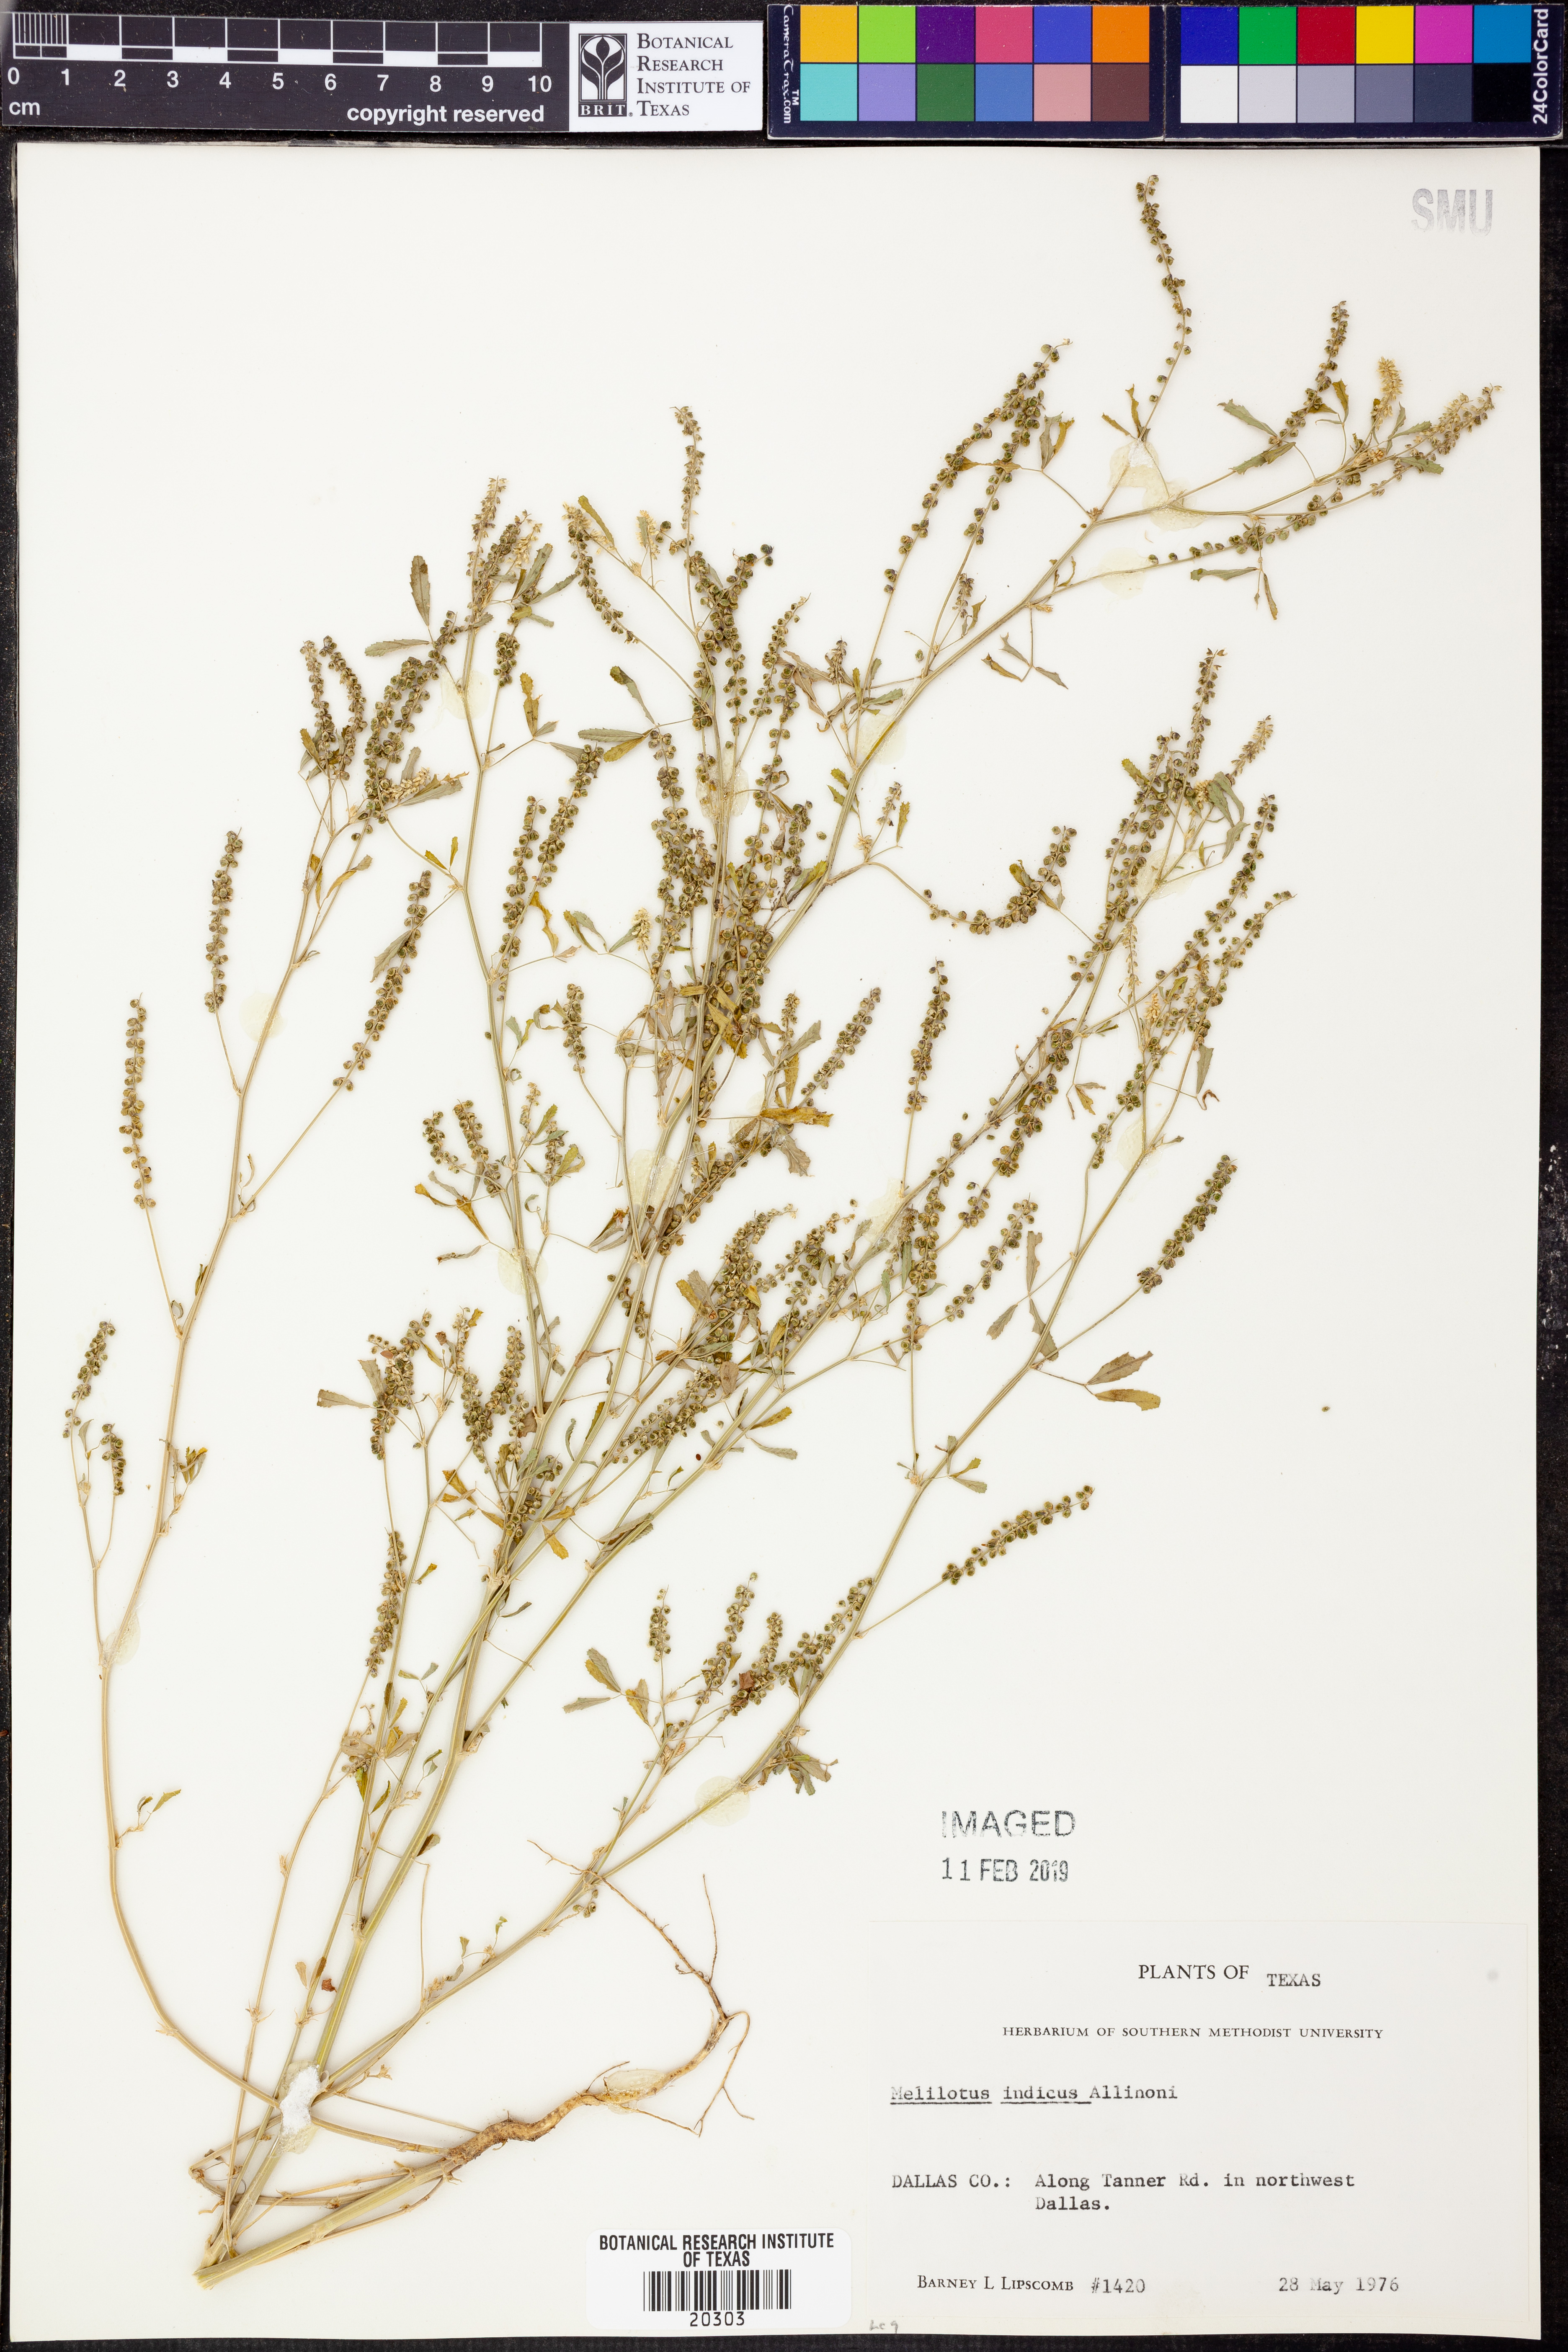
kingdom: Plantae
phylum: Tracheophyta
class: Magnoliopsida
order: Fabales
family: Fabaceae
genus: Melilotus
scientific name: Melilotus indicus
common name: Small melilot
